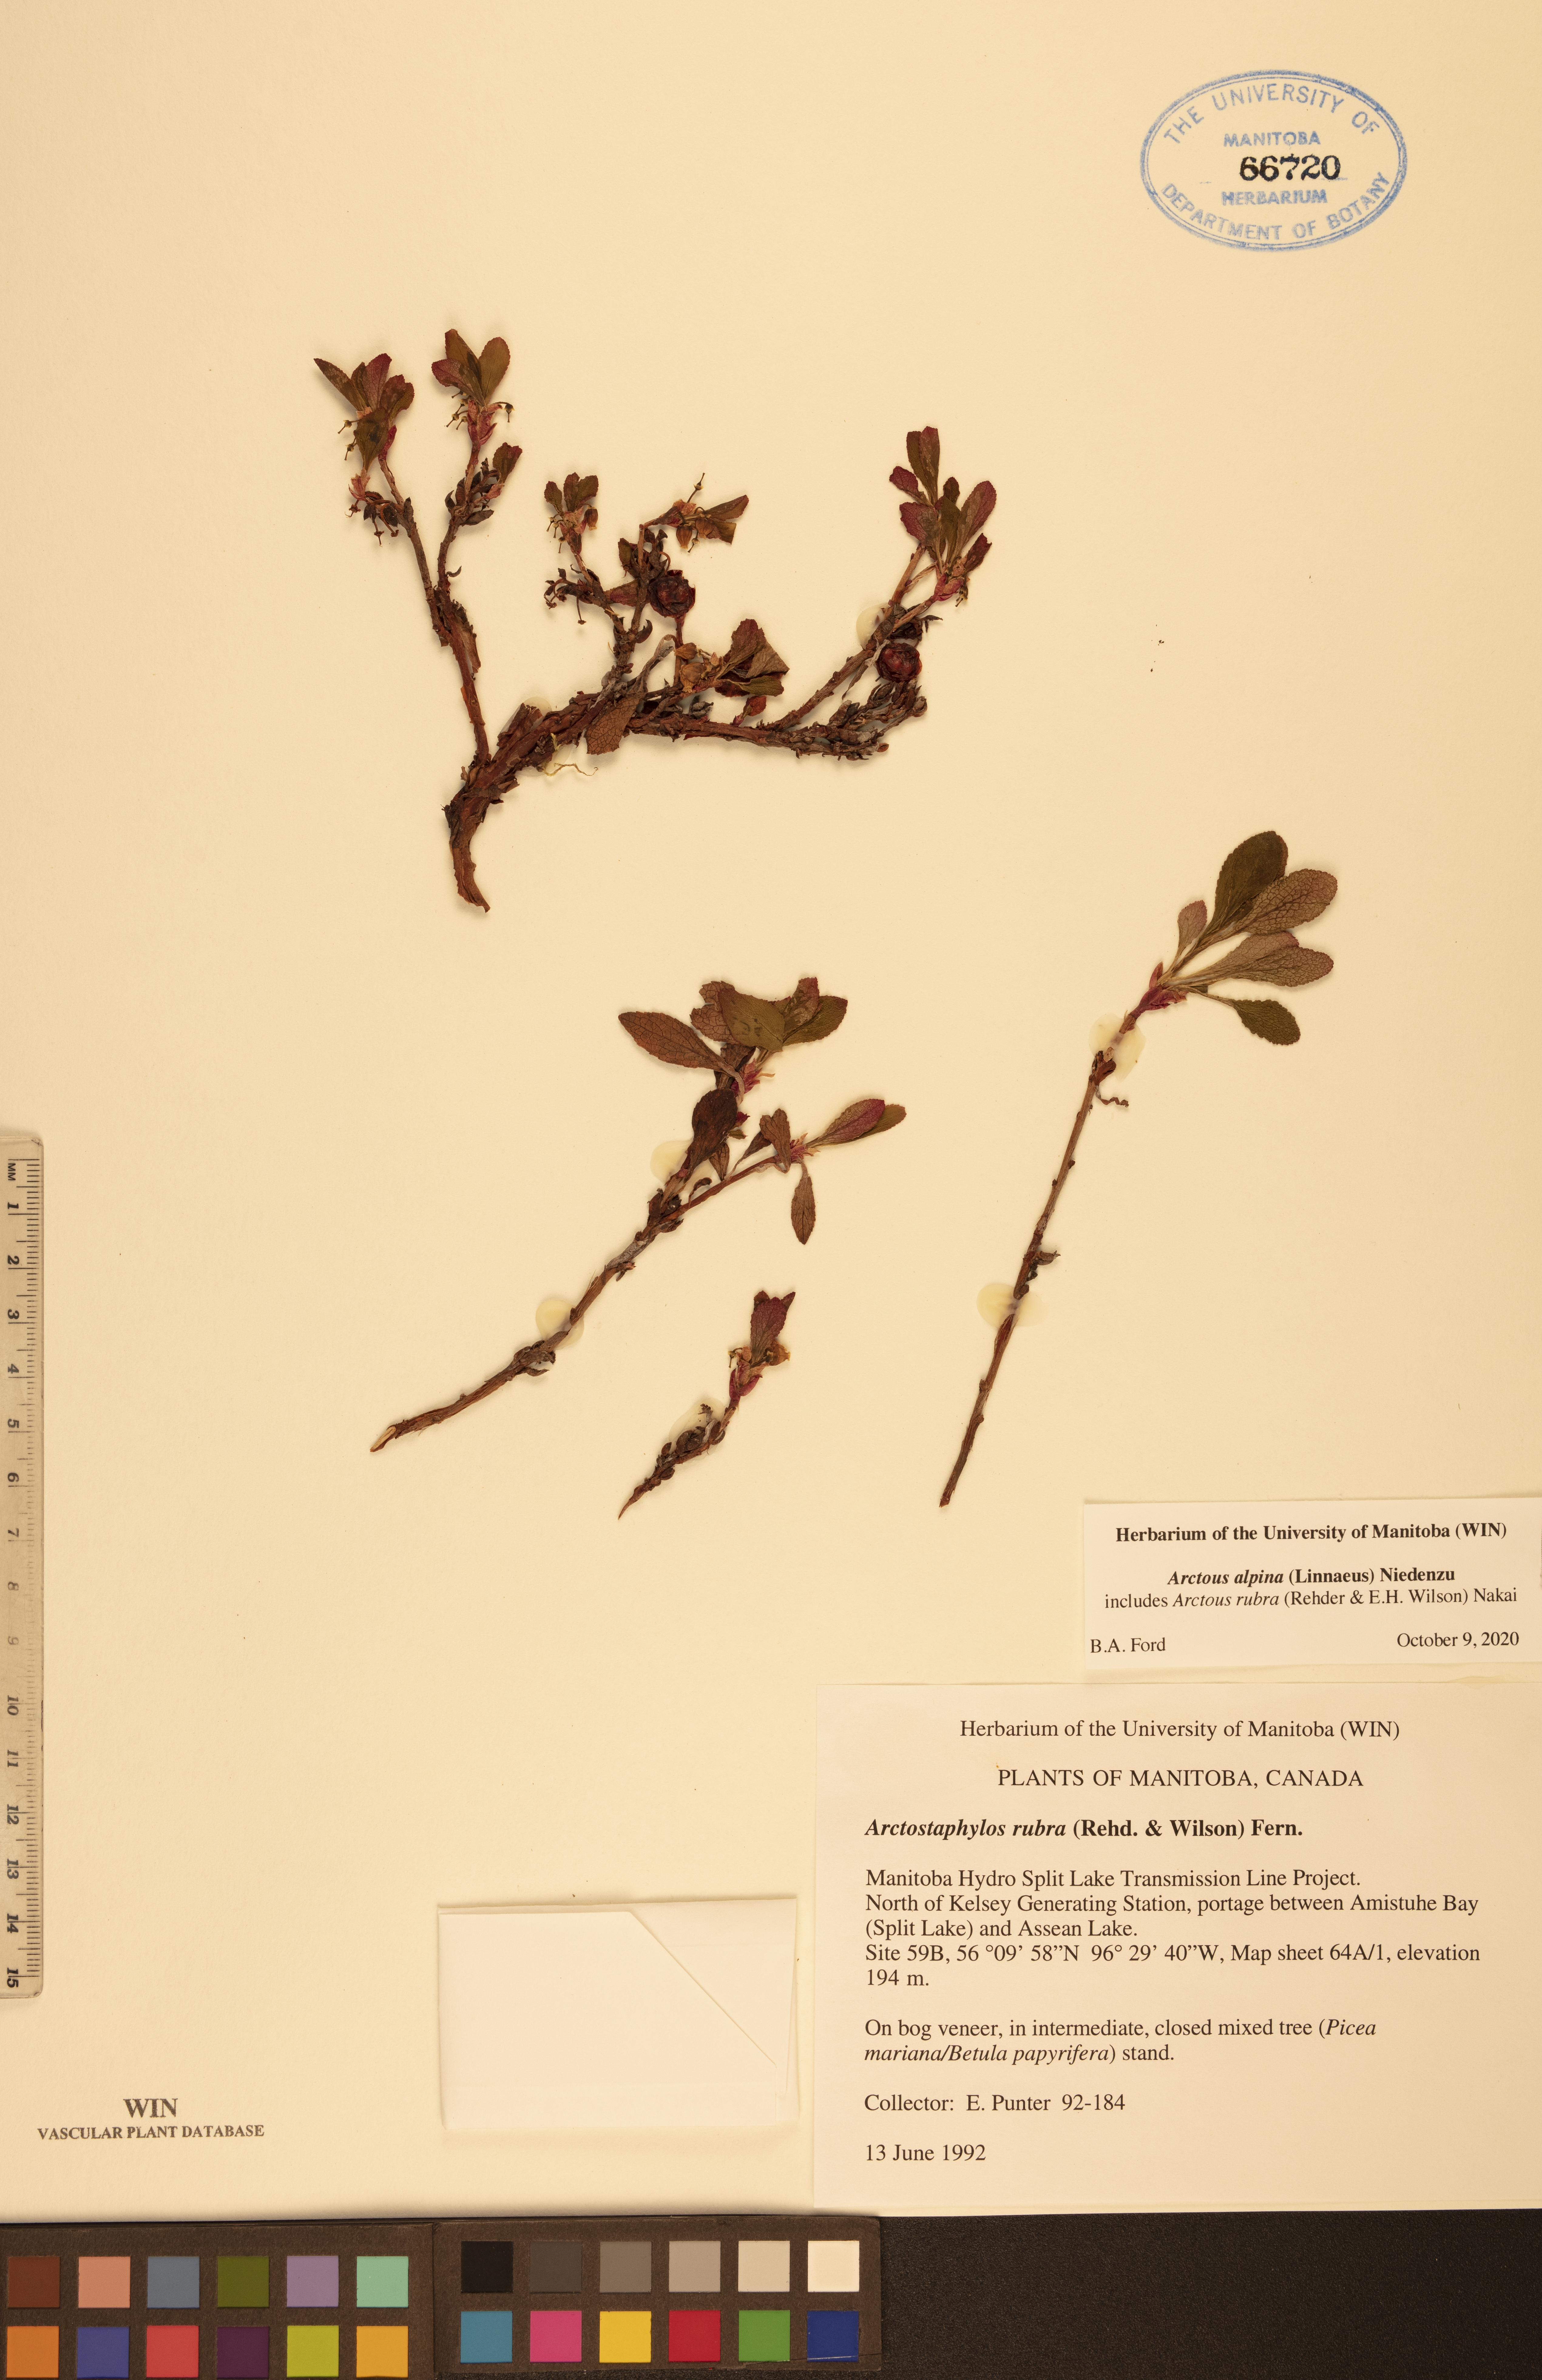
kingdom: Plantae
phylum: Tracheophyta
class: Magnoliopsida
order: Ericales
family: Ericaceae
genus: Arctostaphylos
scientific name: Arctostaphylos alpinus
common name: Alpine bearberry
